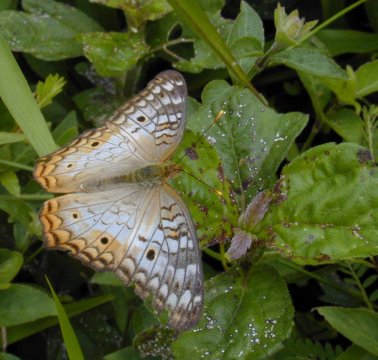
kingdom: Animalia
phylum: Arthropoda
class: Insecta
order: Lepidoptera
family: Nymphalidae
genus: Anartia
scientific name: Anartia jatrophae
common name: White Peacock
